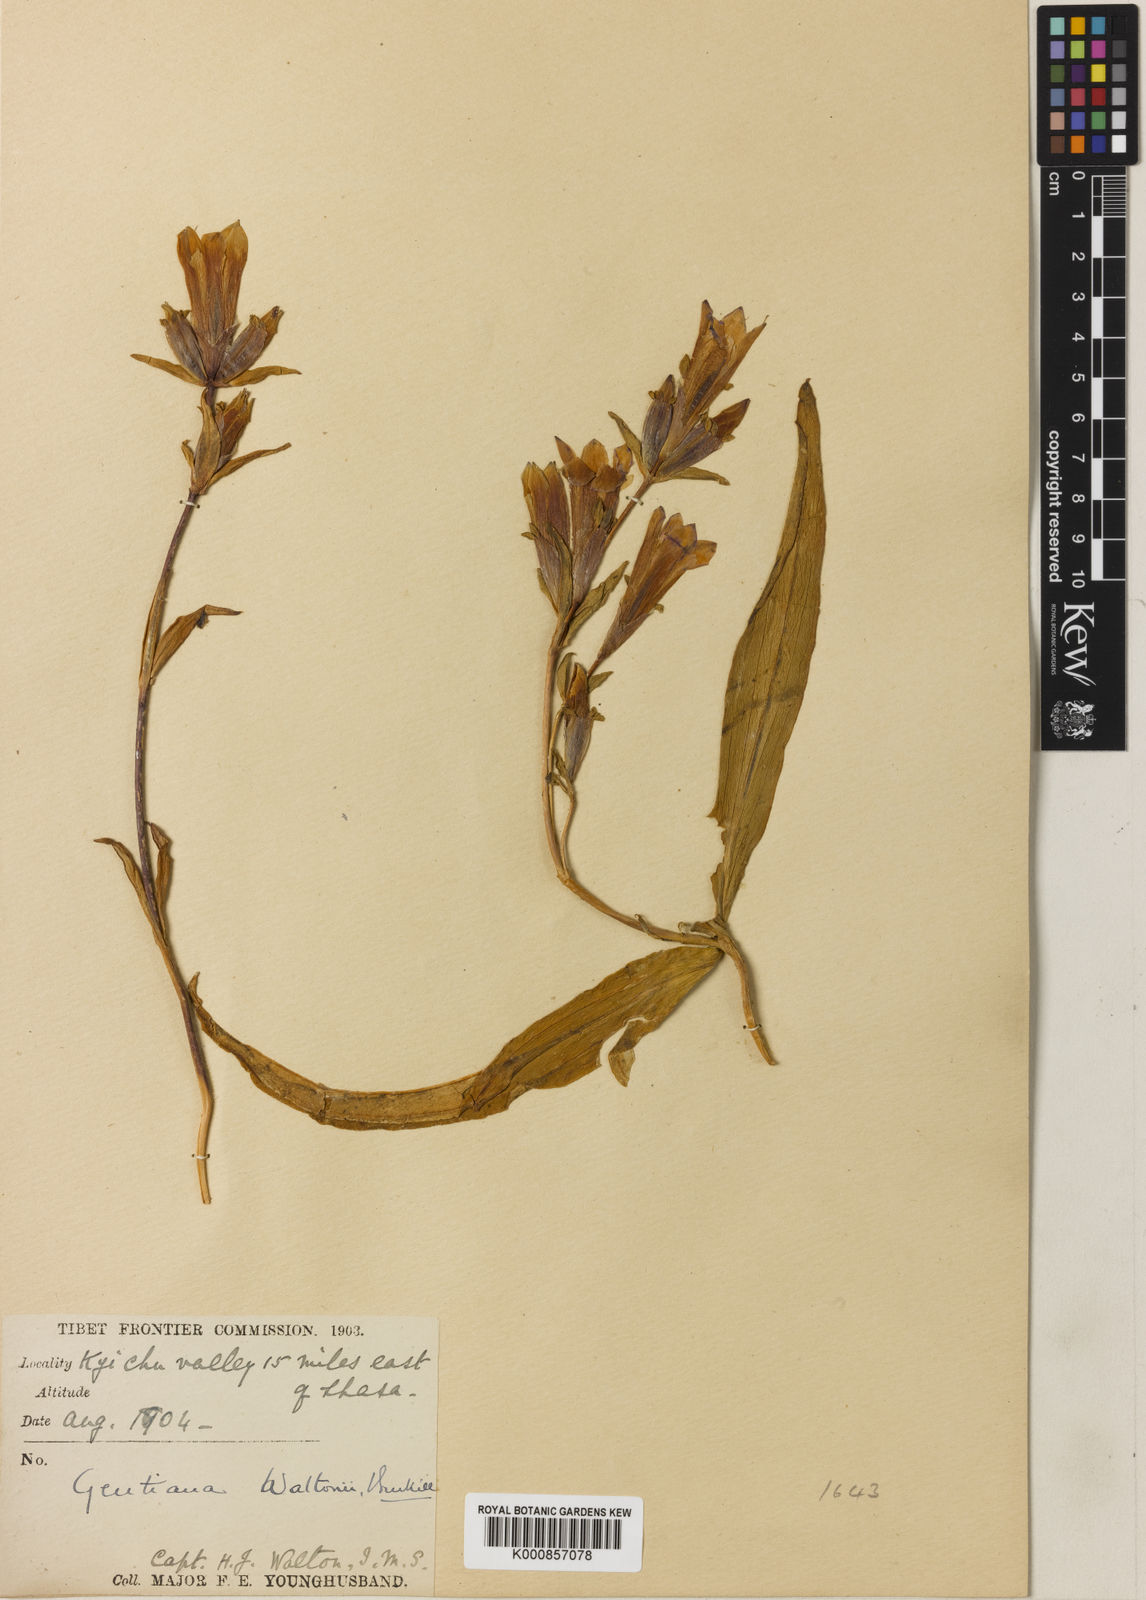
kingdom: Plantae
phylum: Tracheophyta
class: Magnoliopsida
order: Gentianales
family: Gentianaceae
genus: Gentiana
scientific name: Gentiana waltonii
